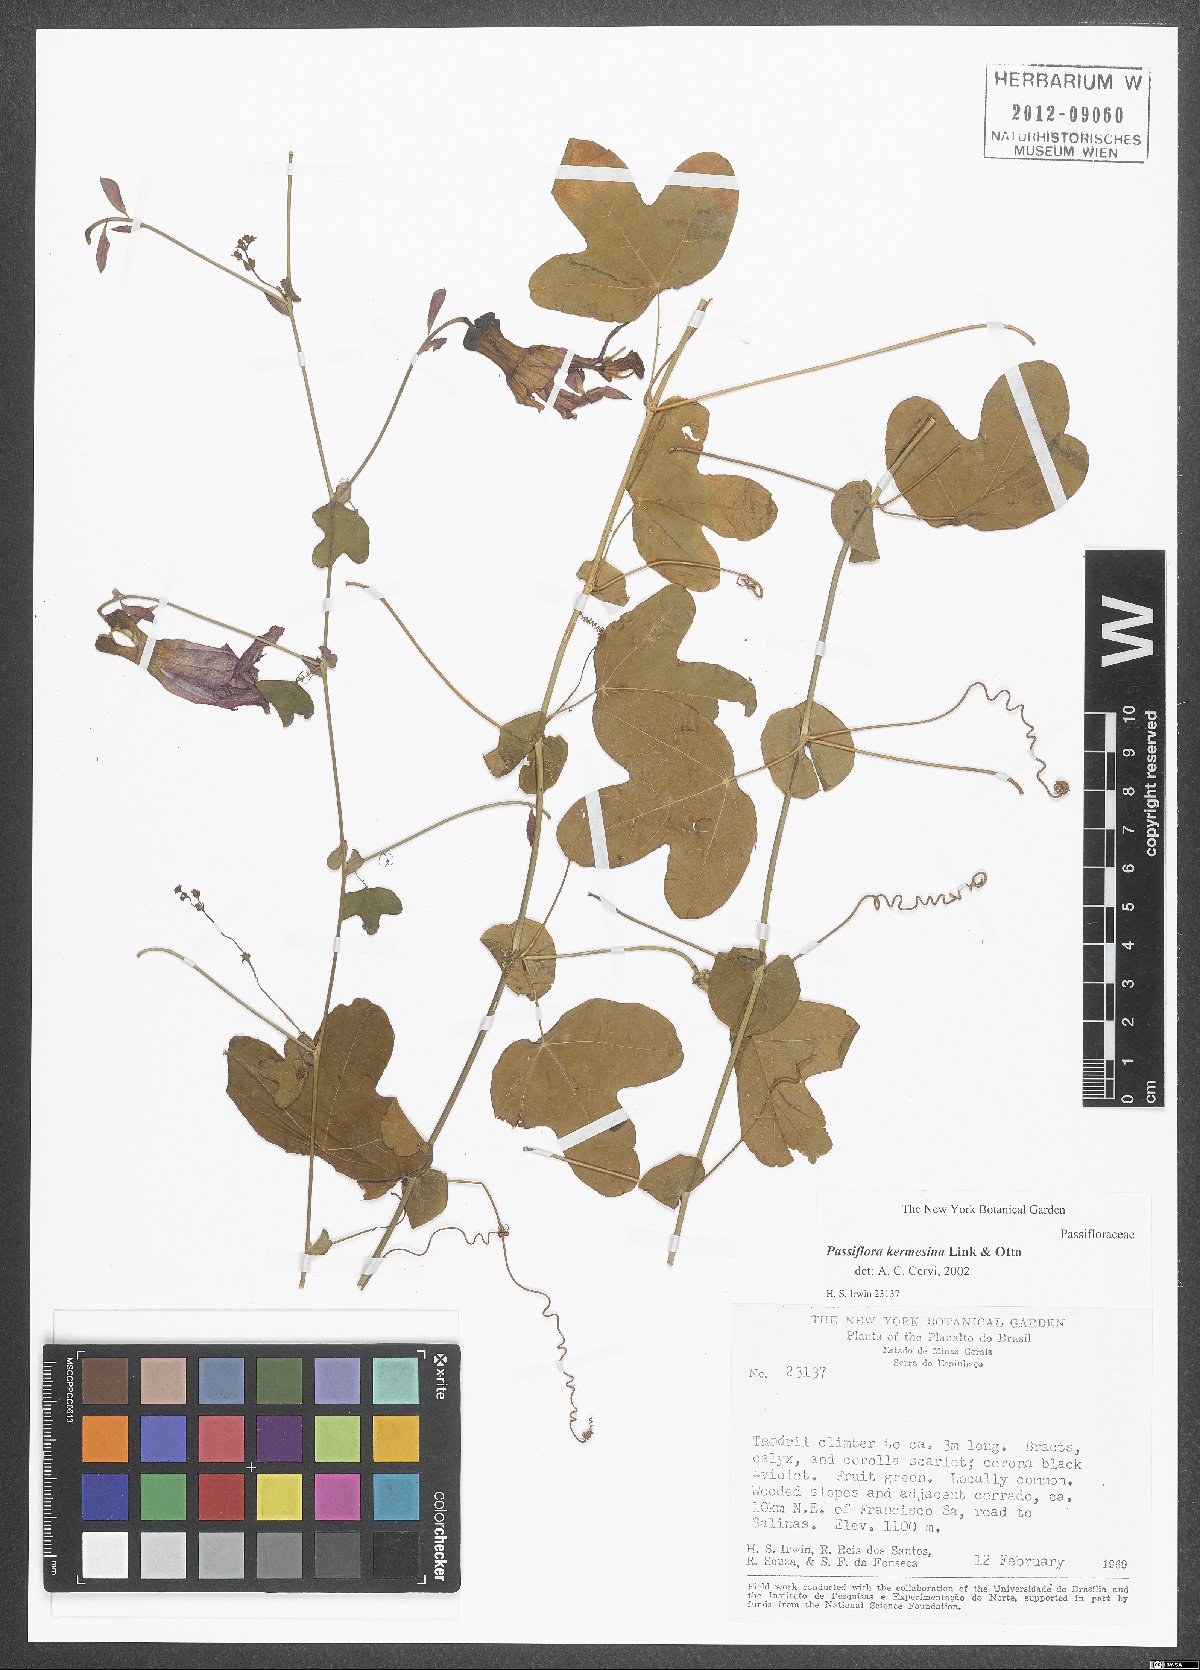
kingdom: Plantae
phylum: Tracheophyta
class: Magnoliopsida
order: Malpighiales
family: Passifloraceae
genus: Passiflora
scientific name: Passiflora kermesina
